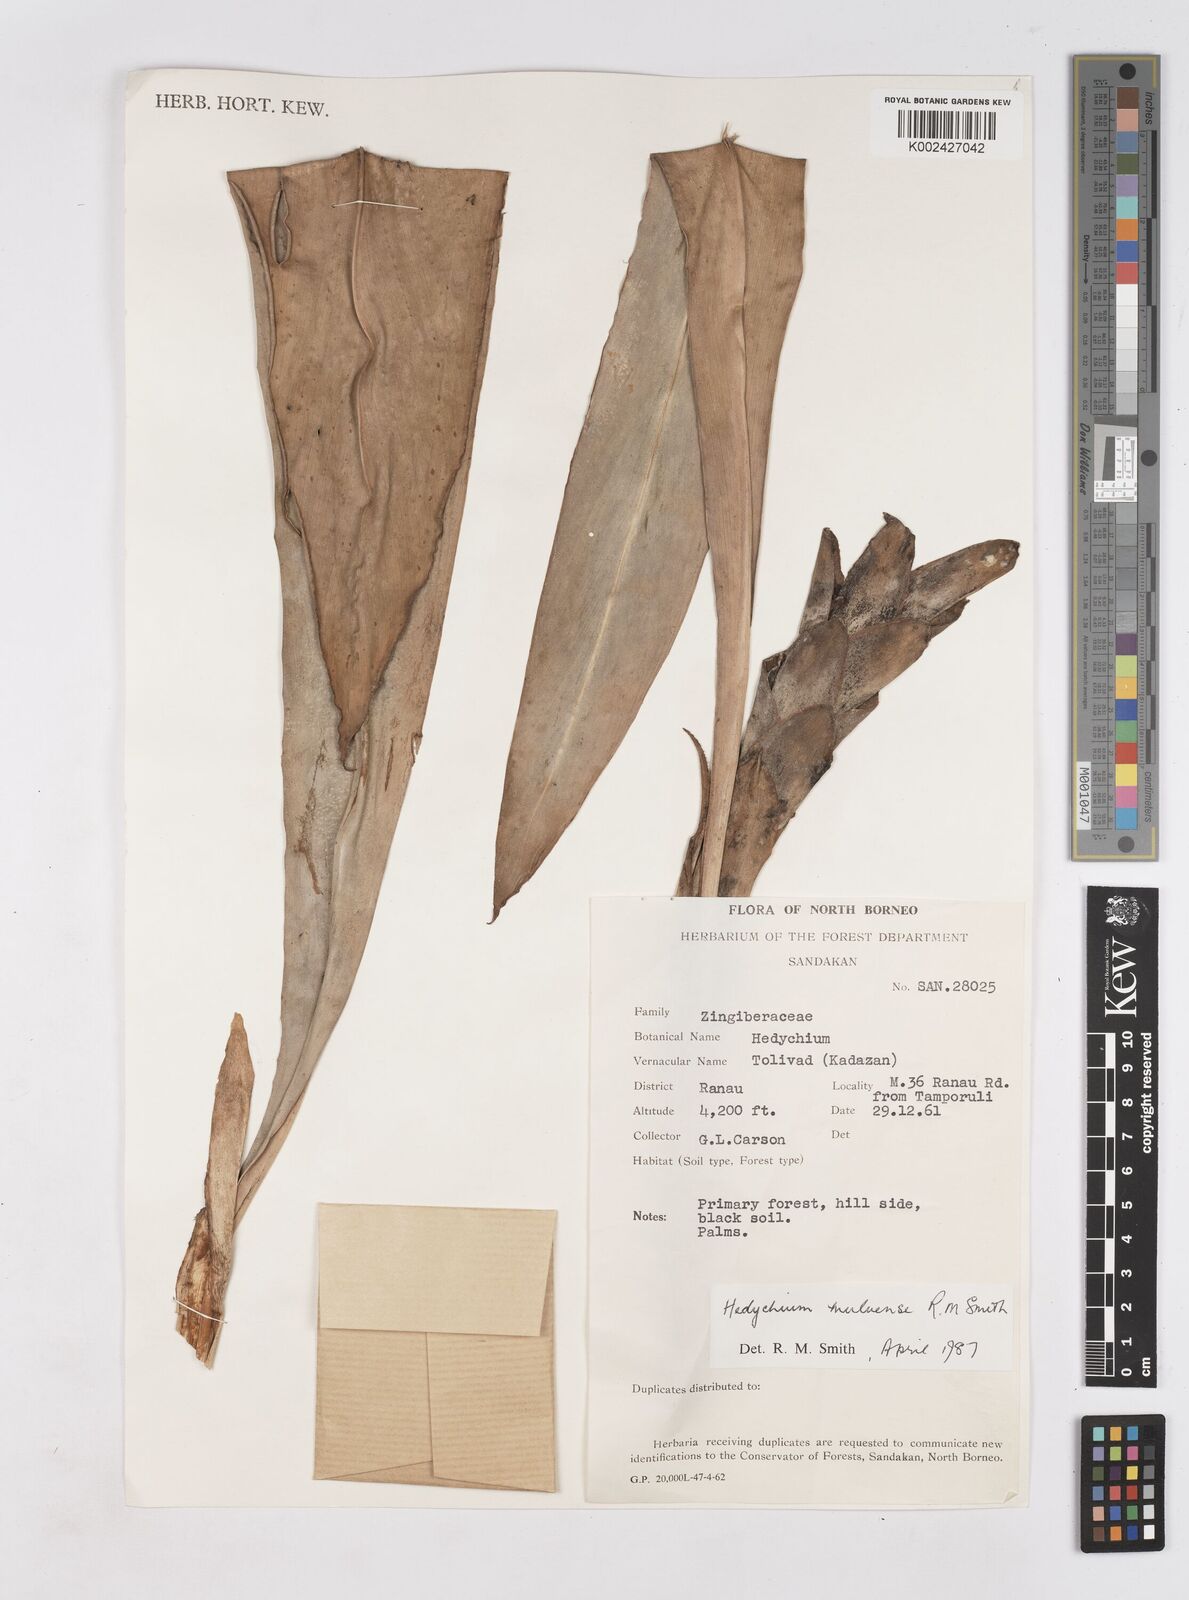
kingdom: Plantae
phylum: Tracheophyta
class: Liliopsida
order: Zingiberales
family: Zingiberaceae
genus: Hedychium
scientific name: Hedychium muluense
